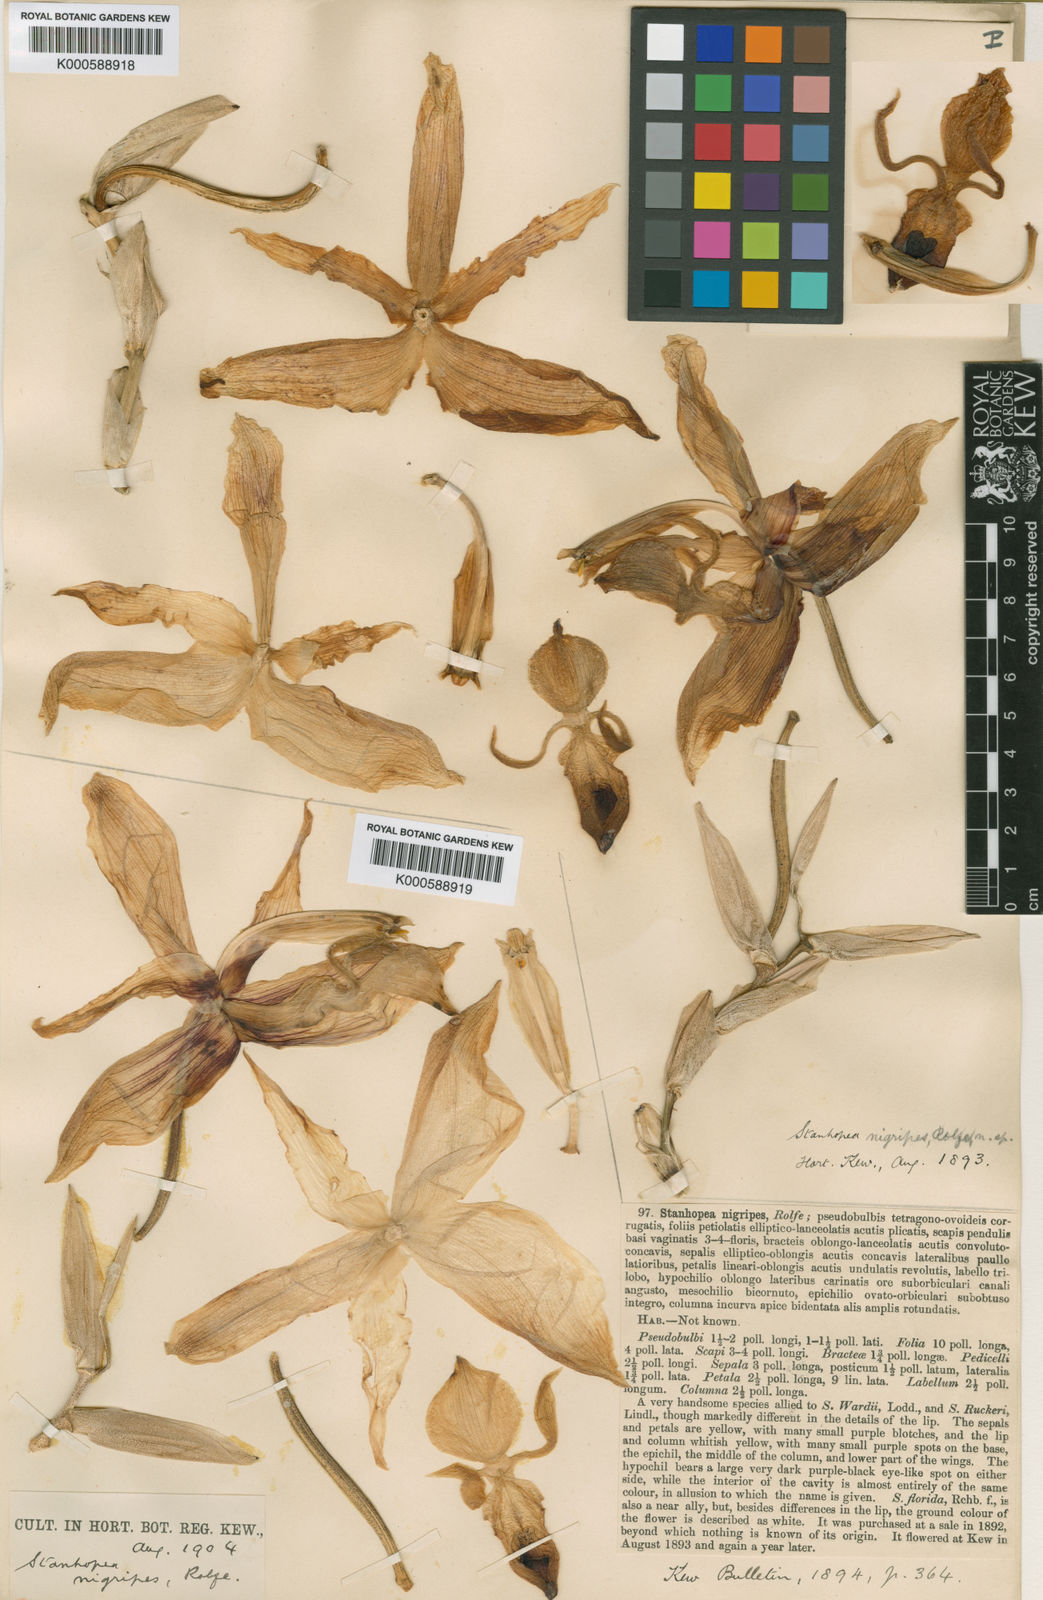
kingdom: Plantae
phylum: Tracheophyta
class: Liliopsida
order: Asparagales
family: Orchidaceae
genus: Stanhopea
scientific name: Stanhopea
